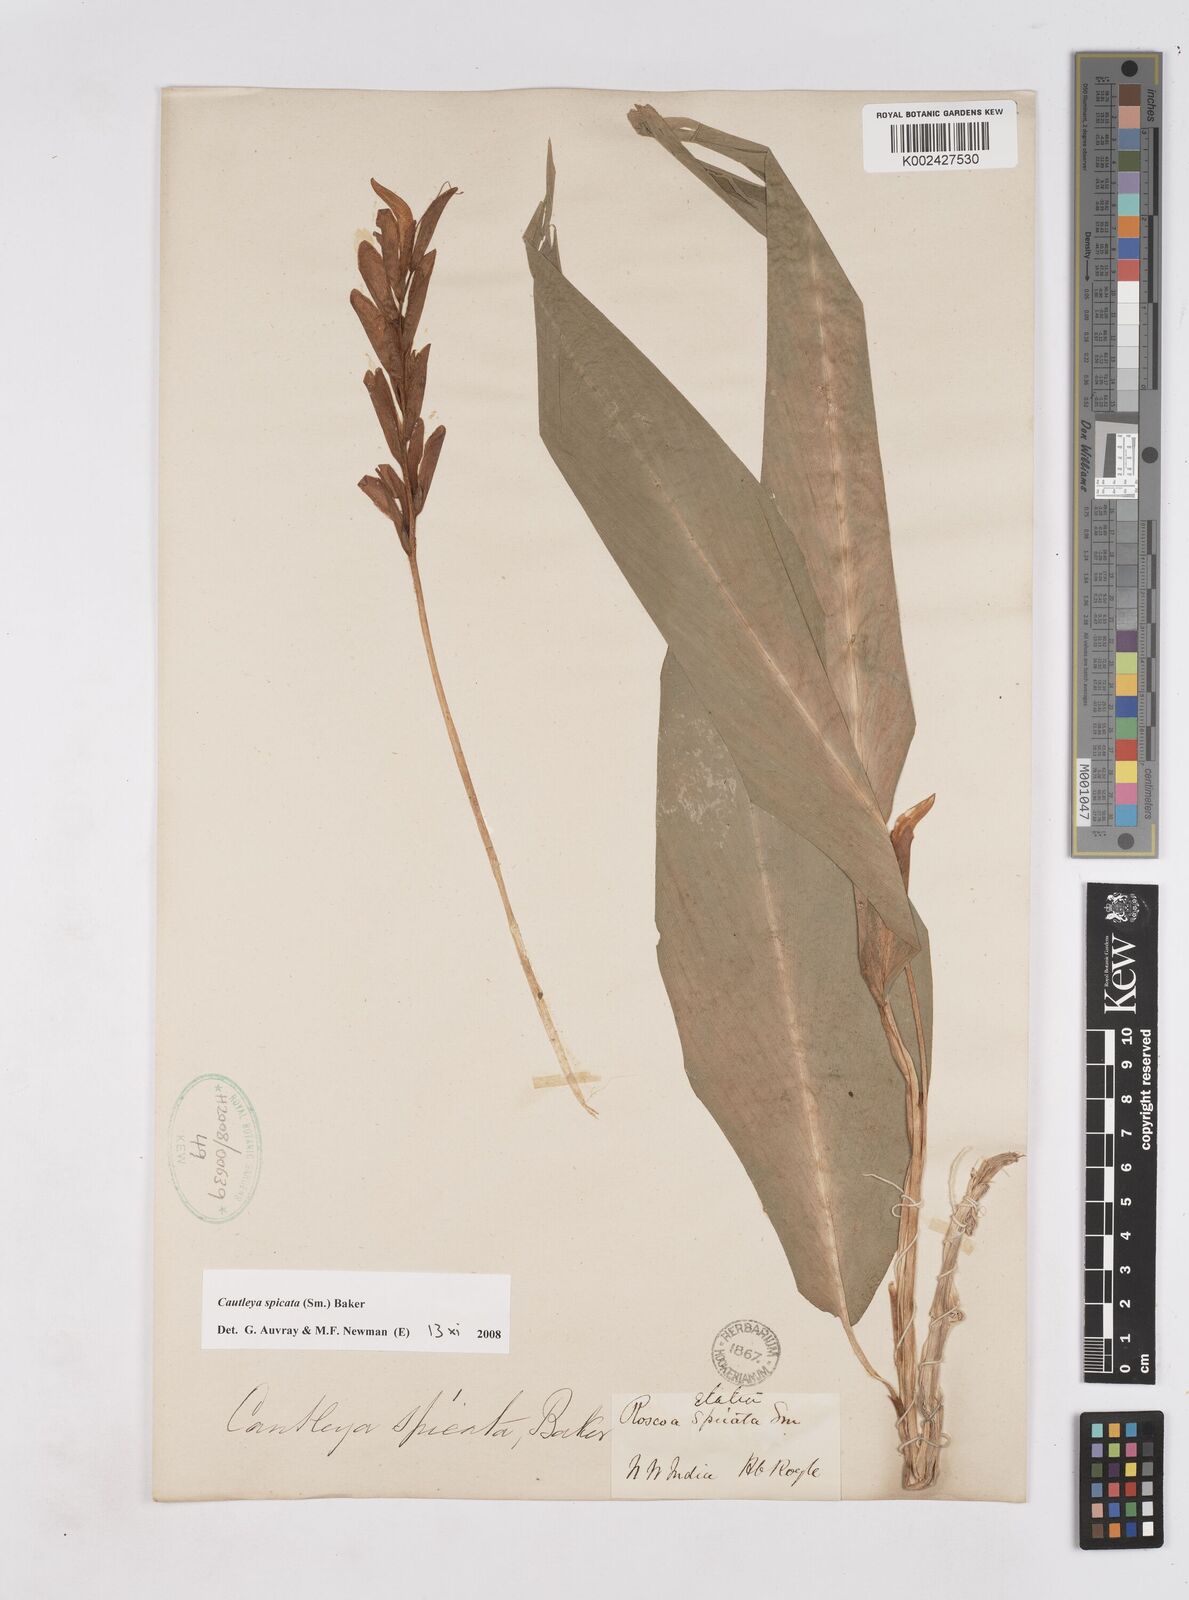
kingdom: Plantae
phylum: Tracheophyta
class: Liliopsida
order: Zingiberales
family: Zingiberaceae
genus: Cautleya
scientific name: Cautleya spicata
